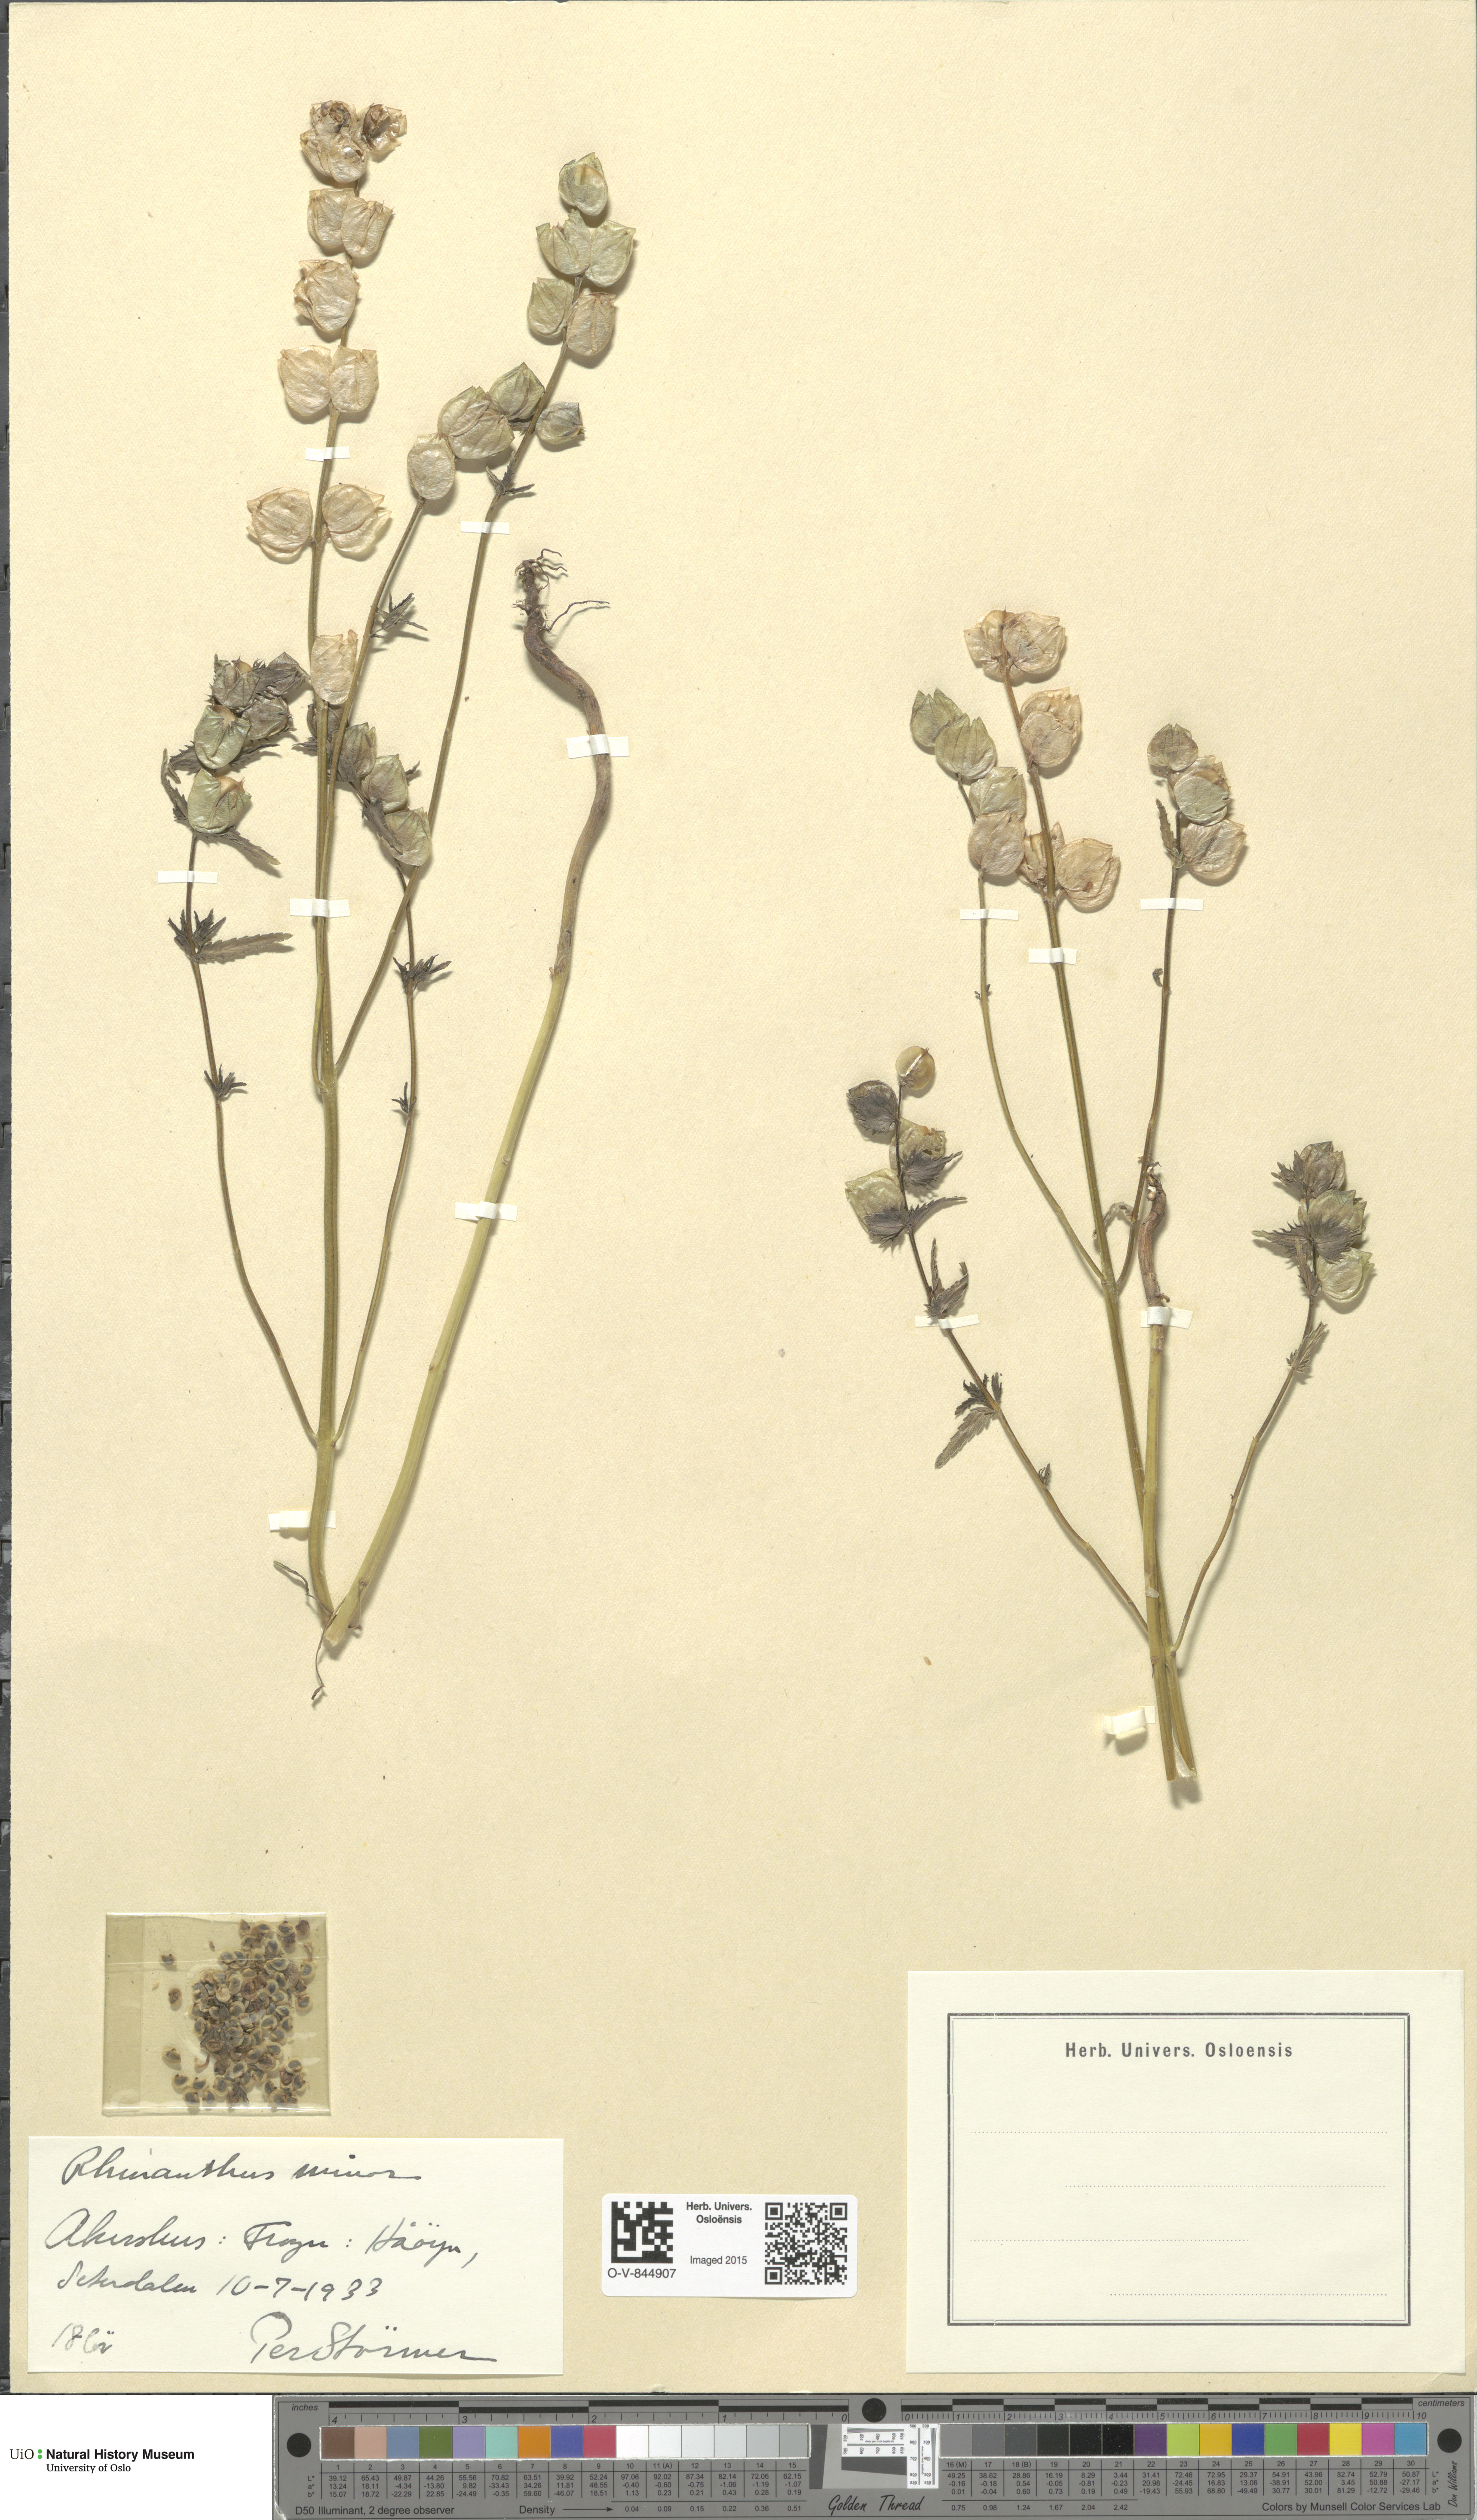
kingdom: Plantae
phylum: Tracheophyta
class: Magnoliopsida
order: Lamiales
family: Orobanchaceae
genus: Rhinanthus
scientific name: Rhinanthus minor
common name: Yellow-rattle
